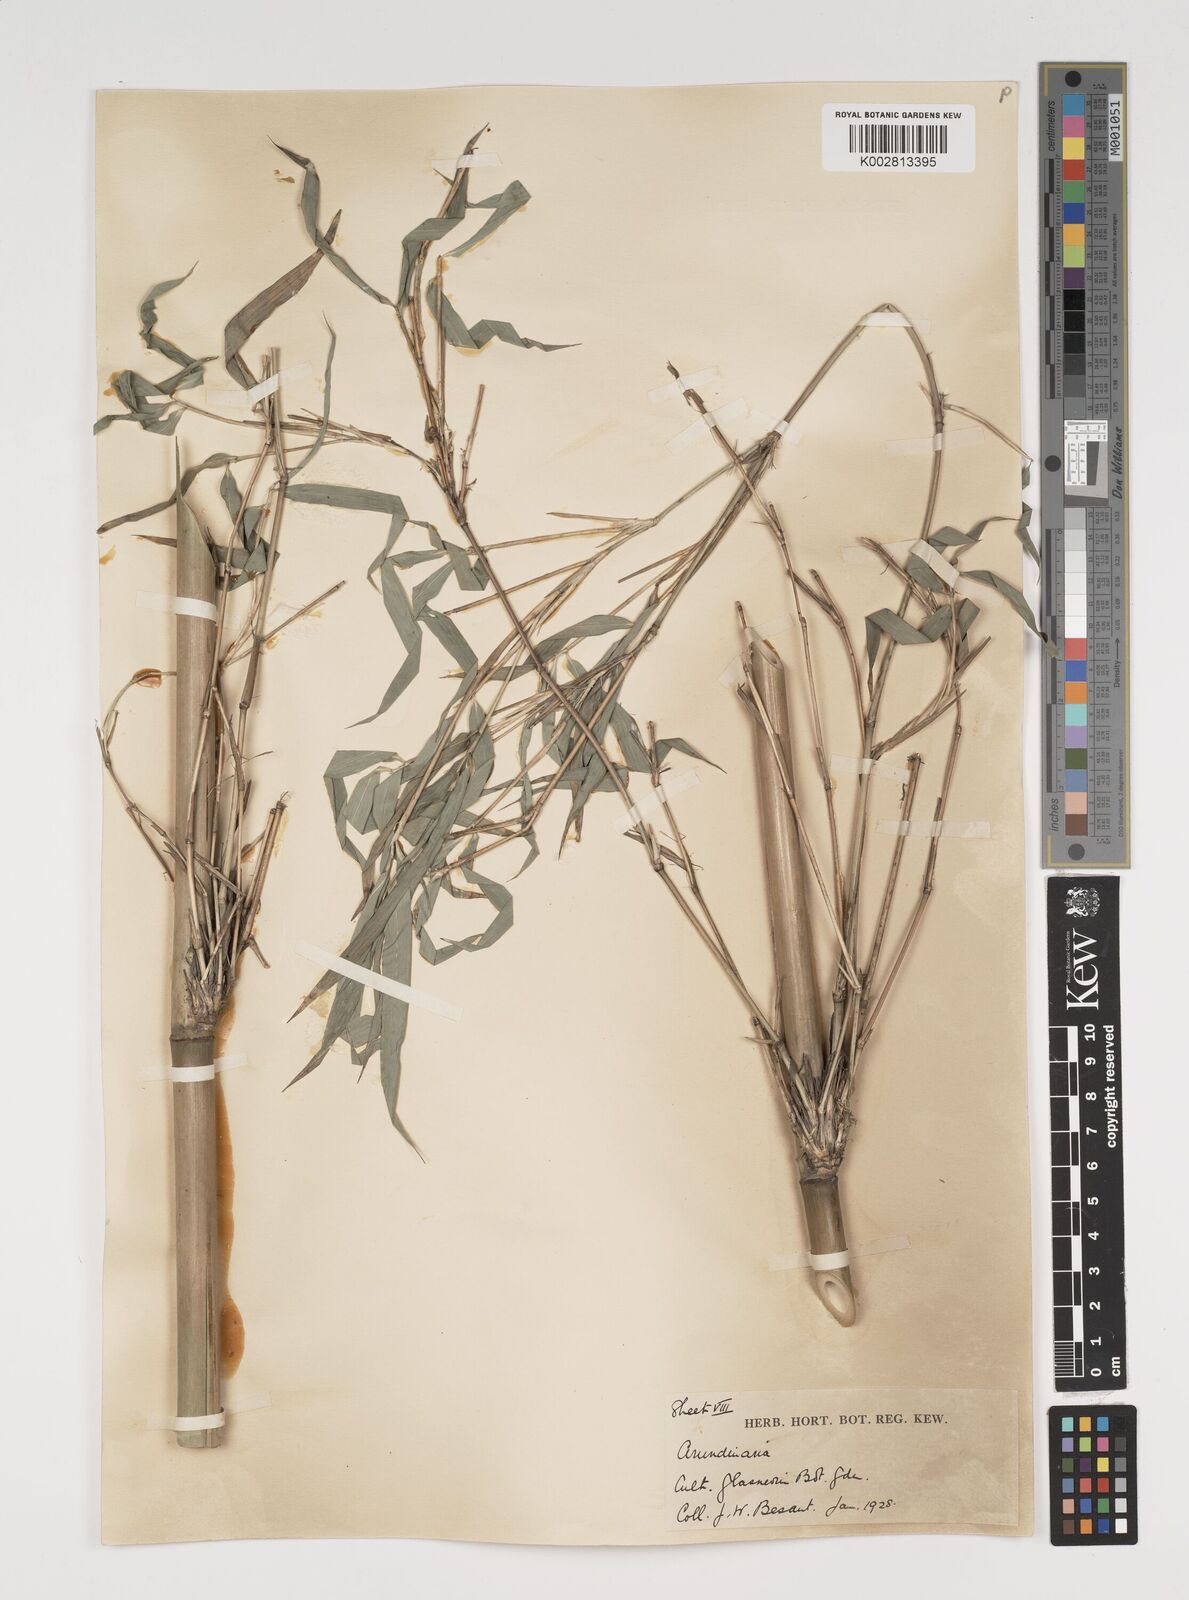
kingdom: Plantae
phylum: Tracheophyta
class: Liliopsida
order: Poales
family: Poaceae
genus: Thamnocalamus
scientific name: Thamnocalamus spathiflorus
